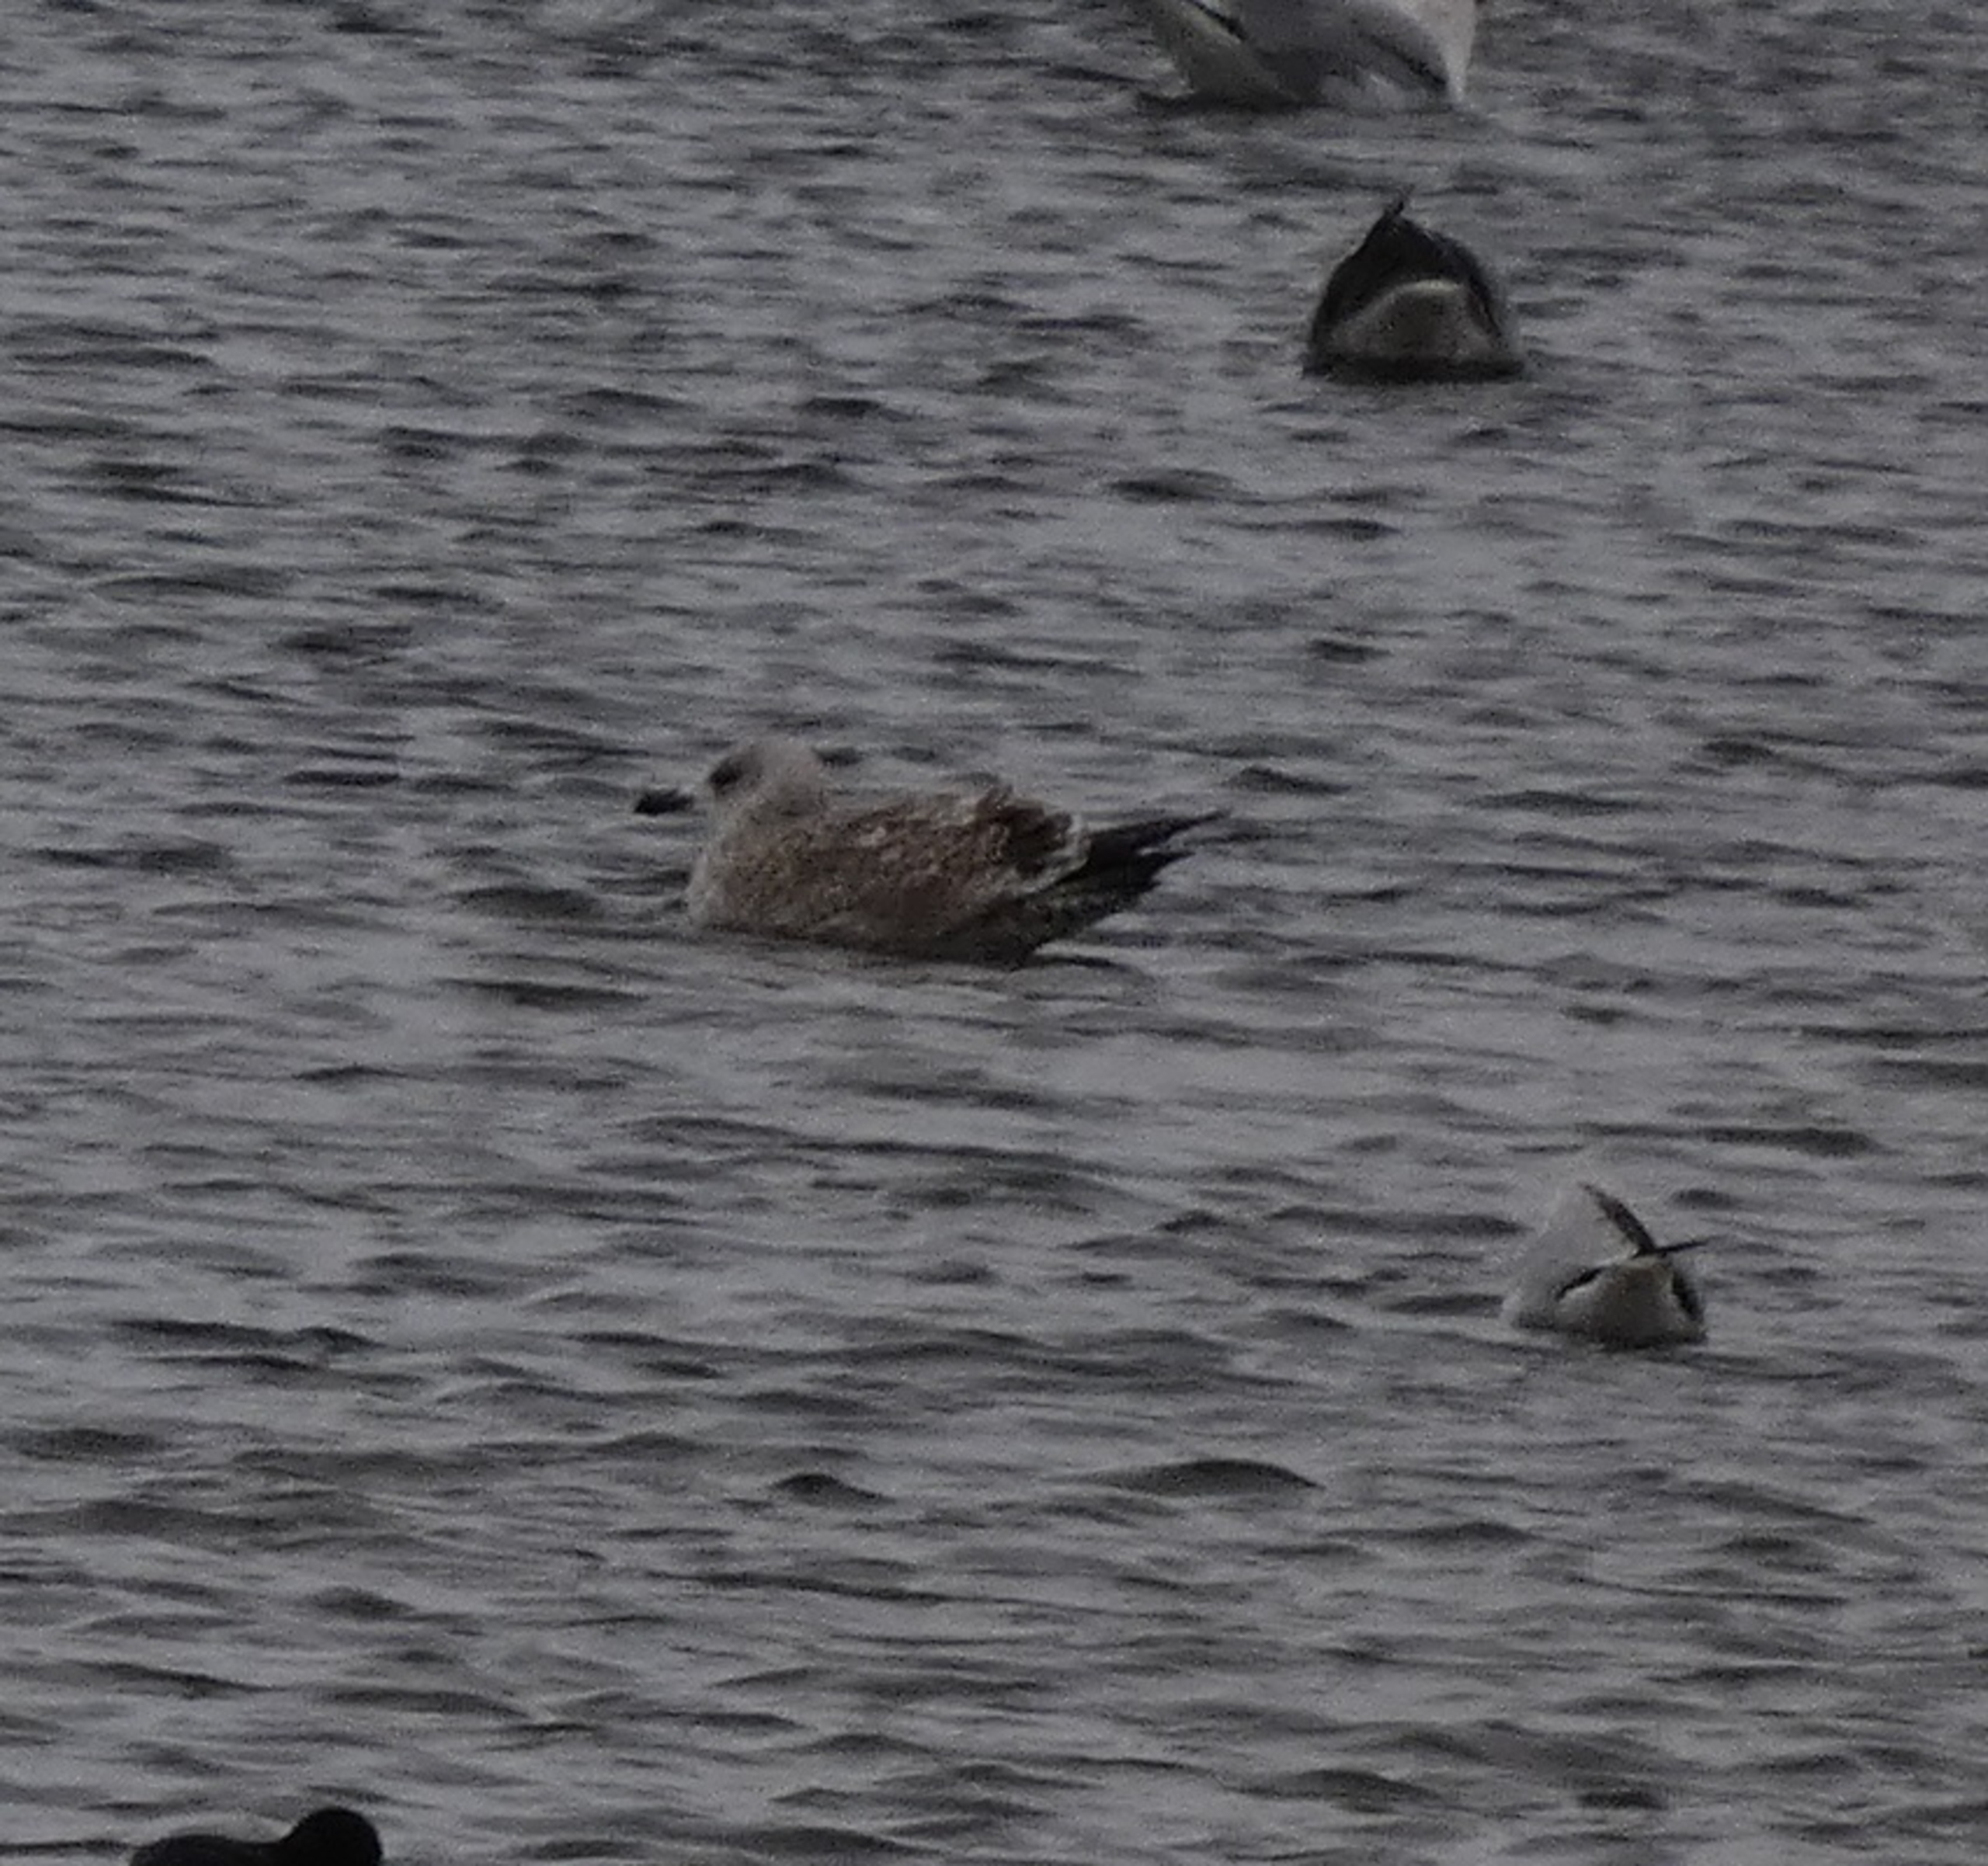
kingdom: Animalia
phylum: Chordata
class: Aves
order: Charadriiformes
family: Laridae
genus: Larus
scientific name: Larus argentatus
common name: Sølvmåge
